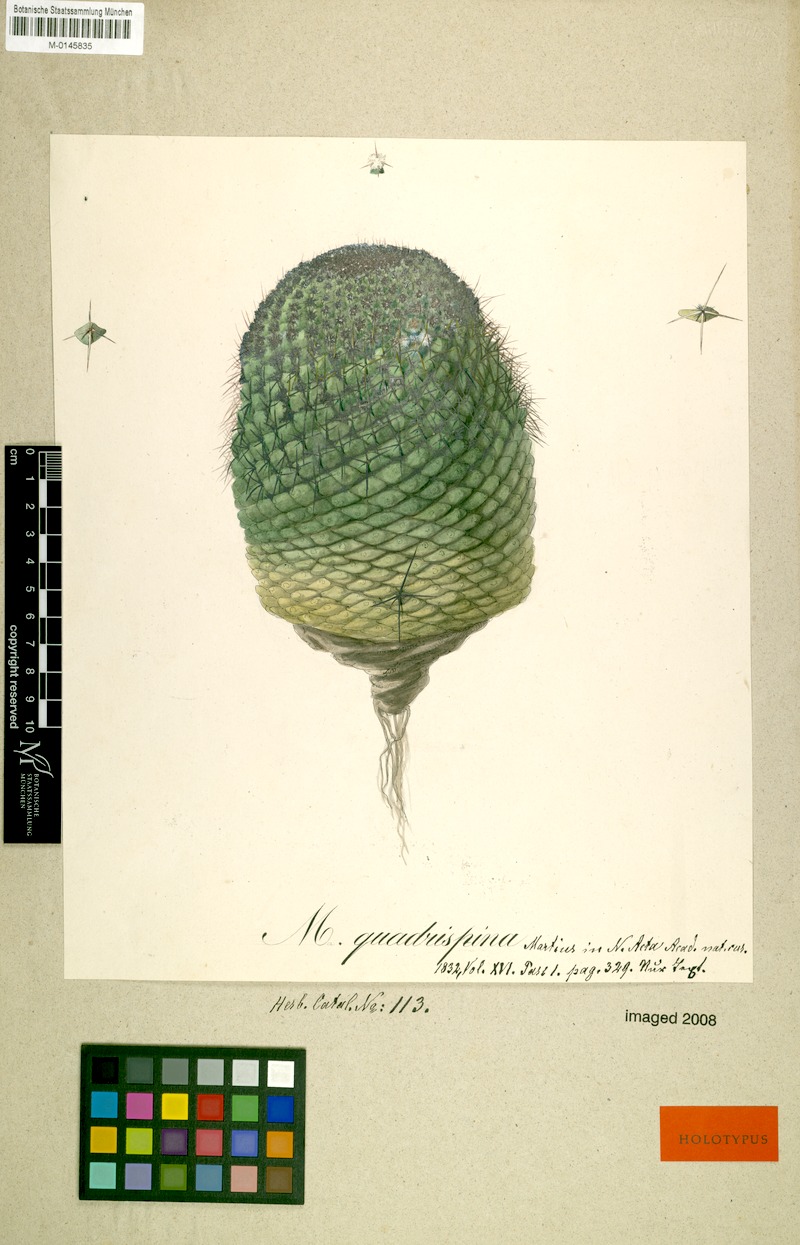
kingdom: Plantae
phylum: Tracheophyta
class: Magnoliopsida
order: Caryophyllales
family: Cactaceae
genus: Mammillaria
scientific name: Mammillaria polythele
